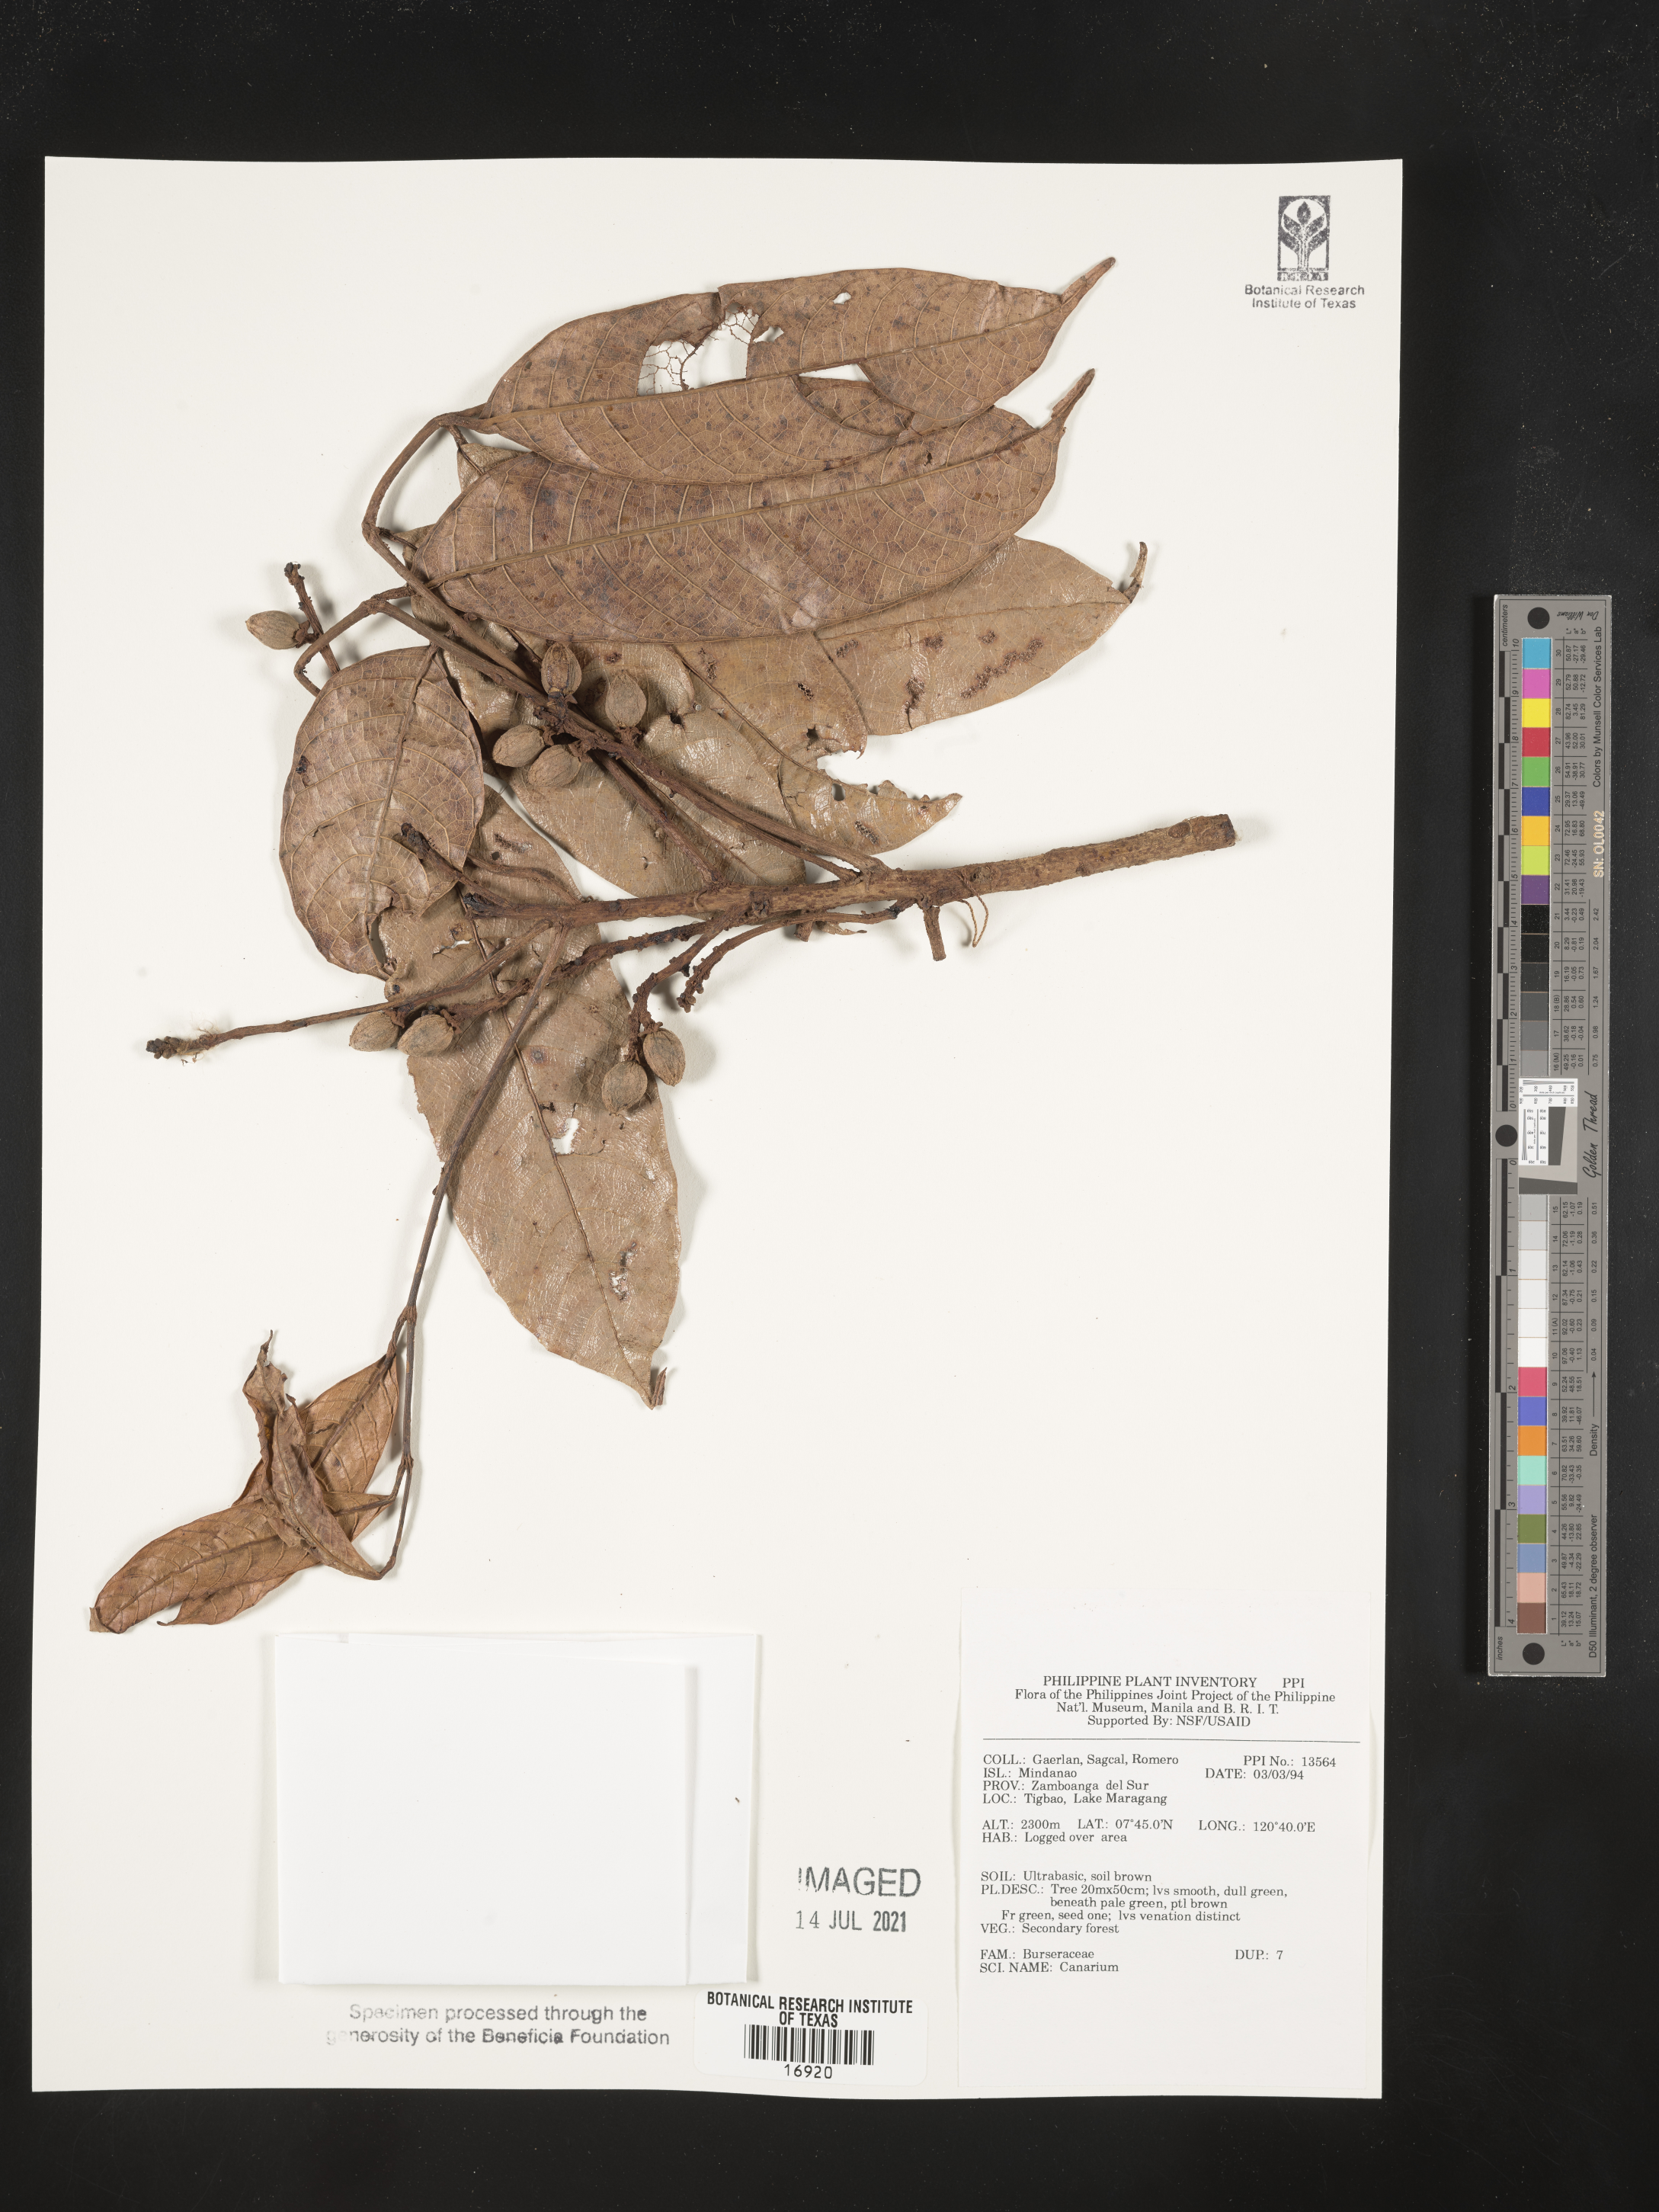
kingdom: Plantae
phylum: Tracheophyta
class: Magnoliopsida
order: Sapindales
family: Burseraceae
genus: Canarium
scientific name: Canarium
